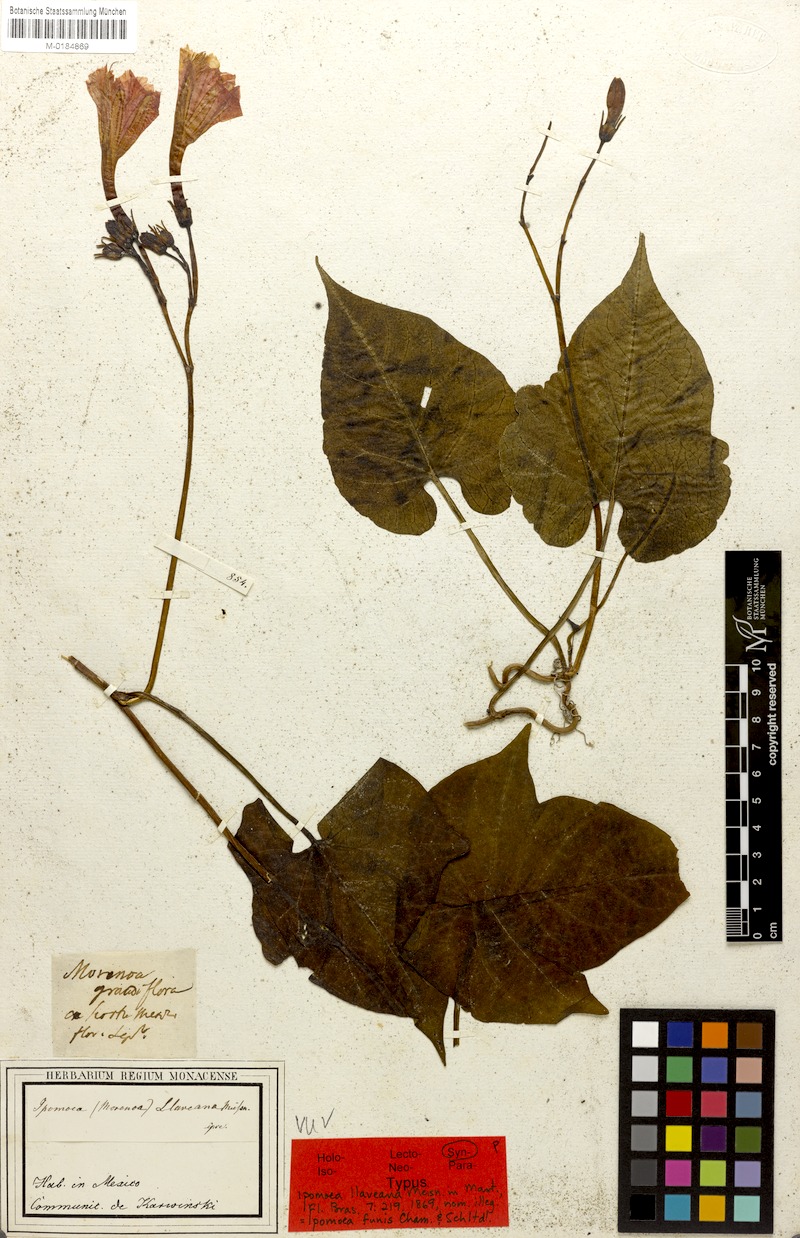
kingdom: Plantae
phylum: Tracheophyta
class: Magnoliopsida
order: Solanales
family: Convolvulaceae
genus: Ipomoea
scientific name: Ipomoea funis
